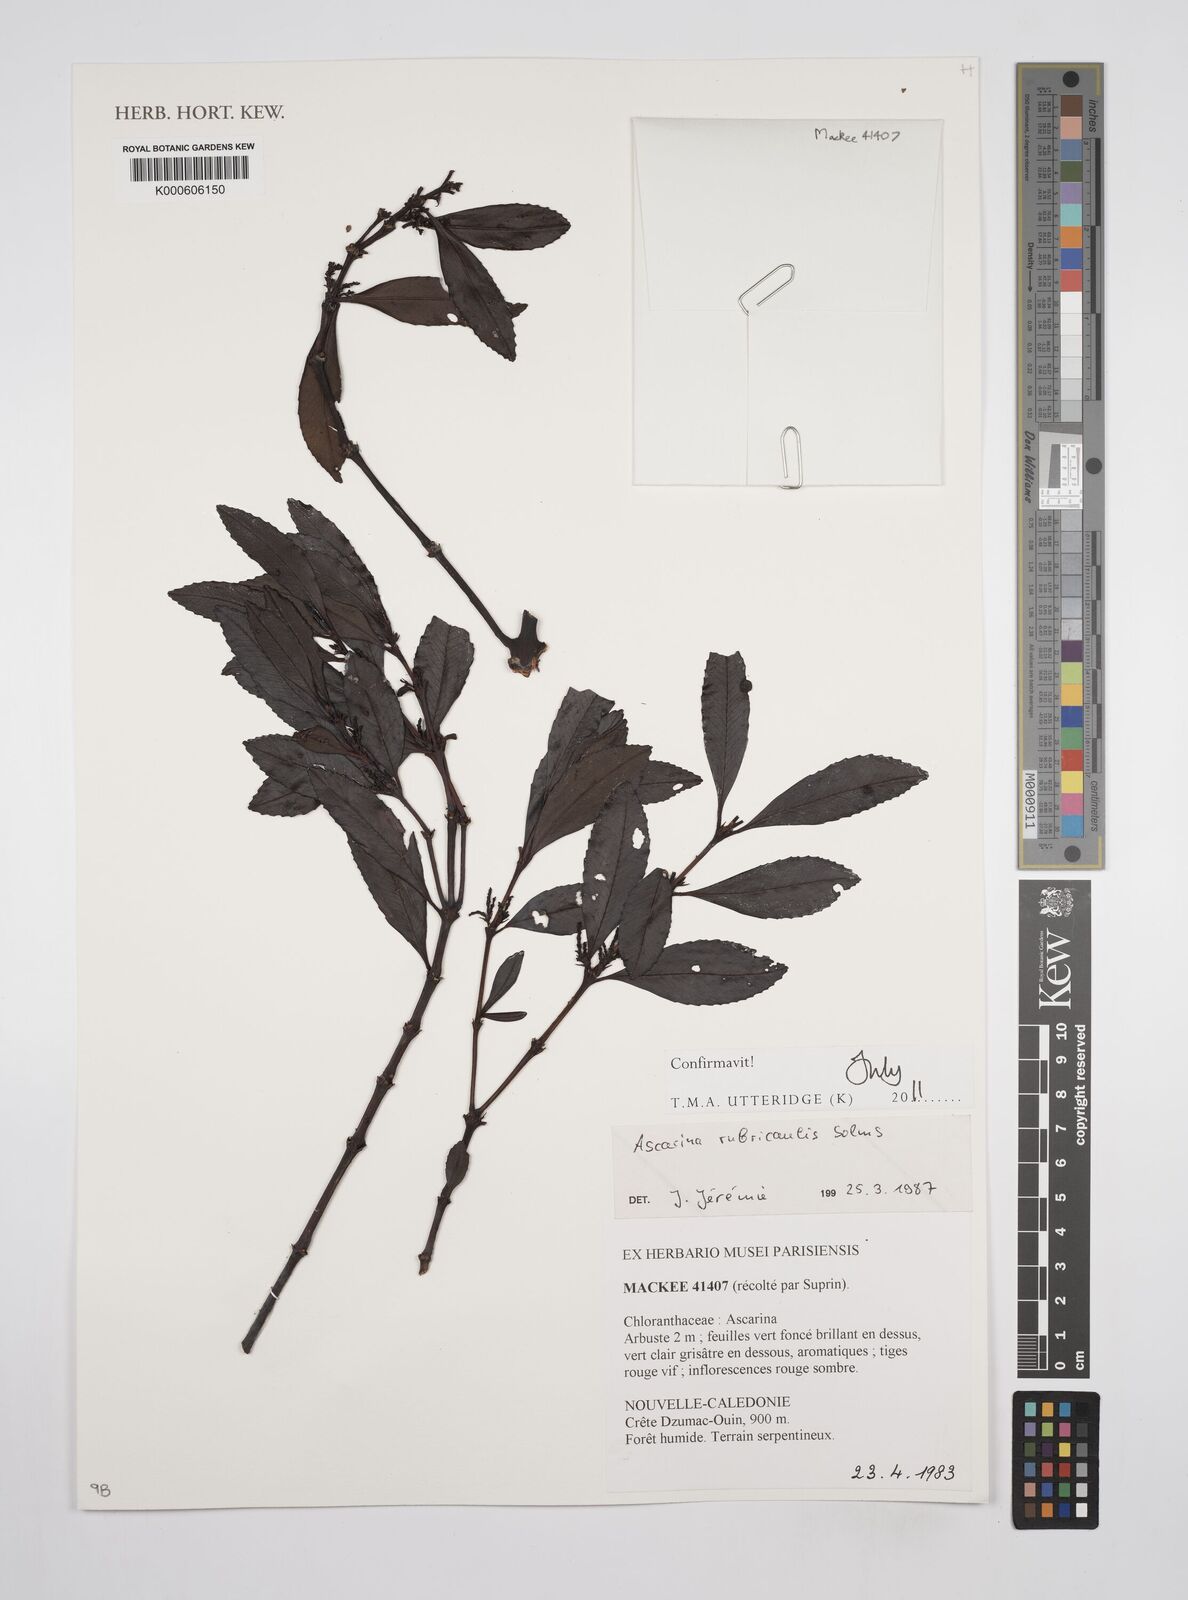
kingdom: Plantae
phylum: Tracheophyta
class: Magnoliopsida
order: Chloranthales
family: Chloranthaceae
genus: Ascarina
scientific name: Ascarina rubricaulis
